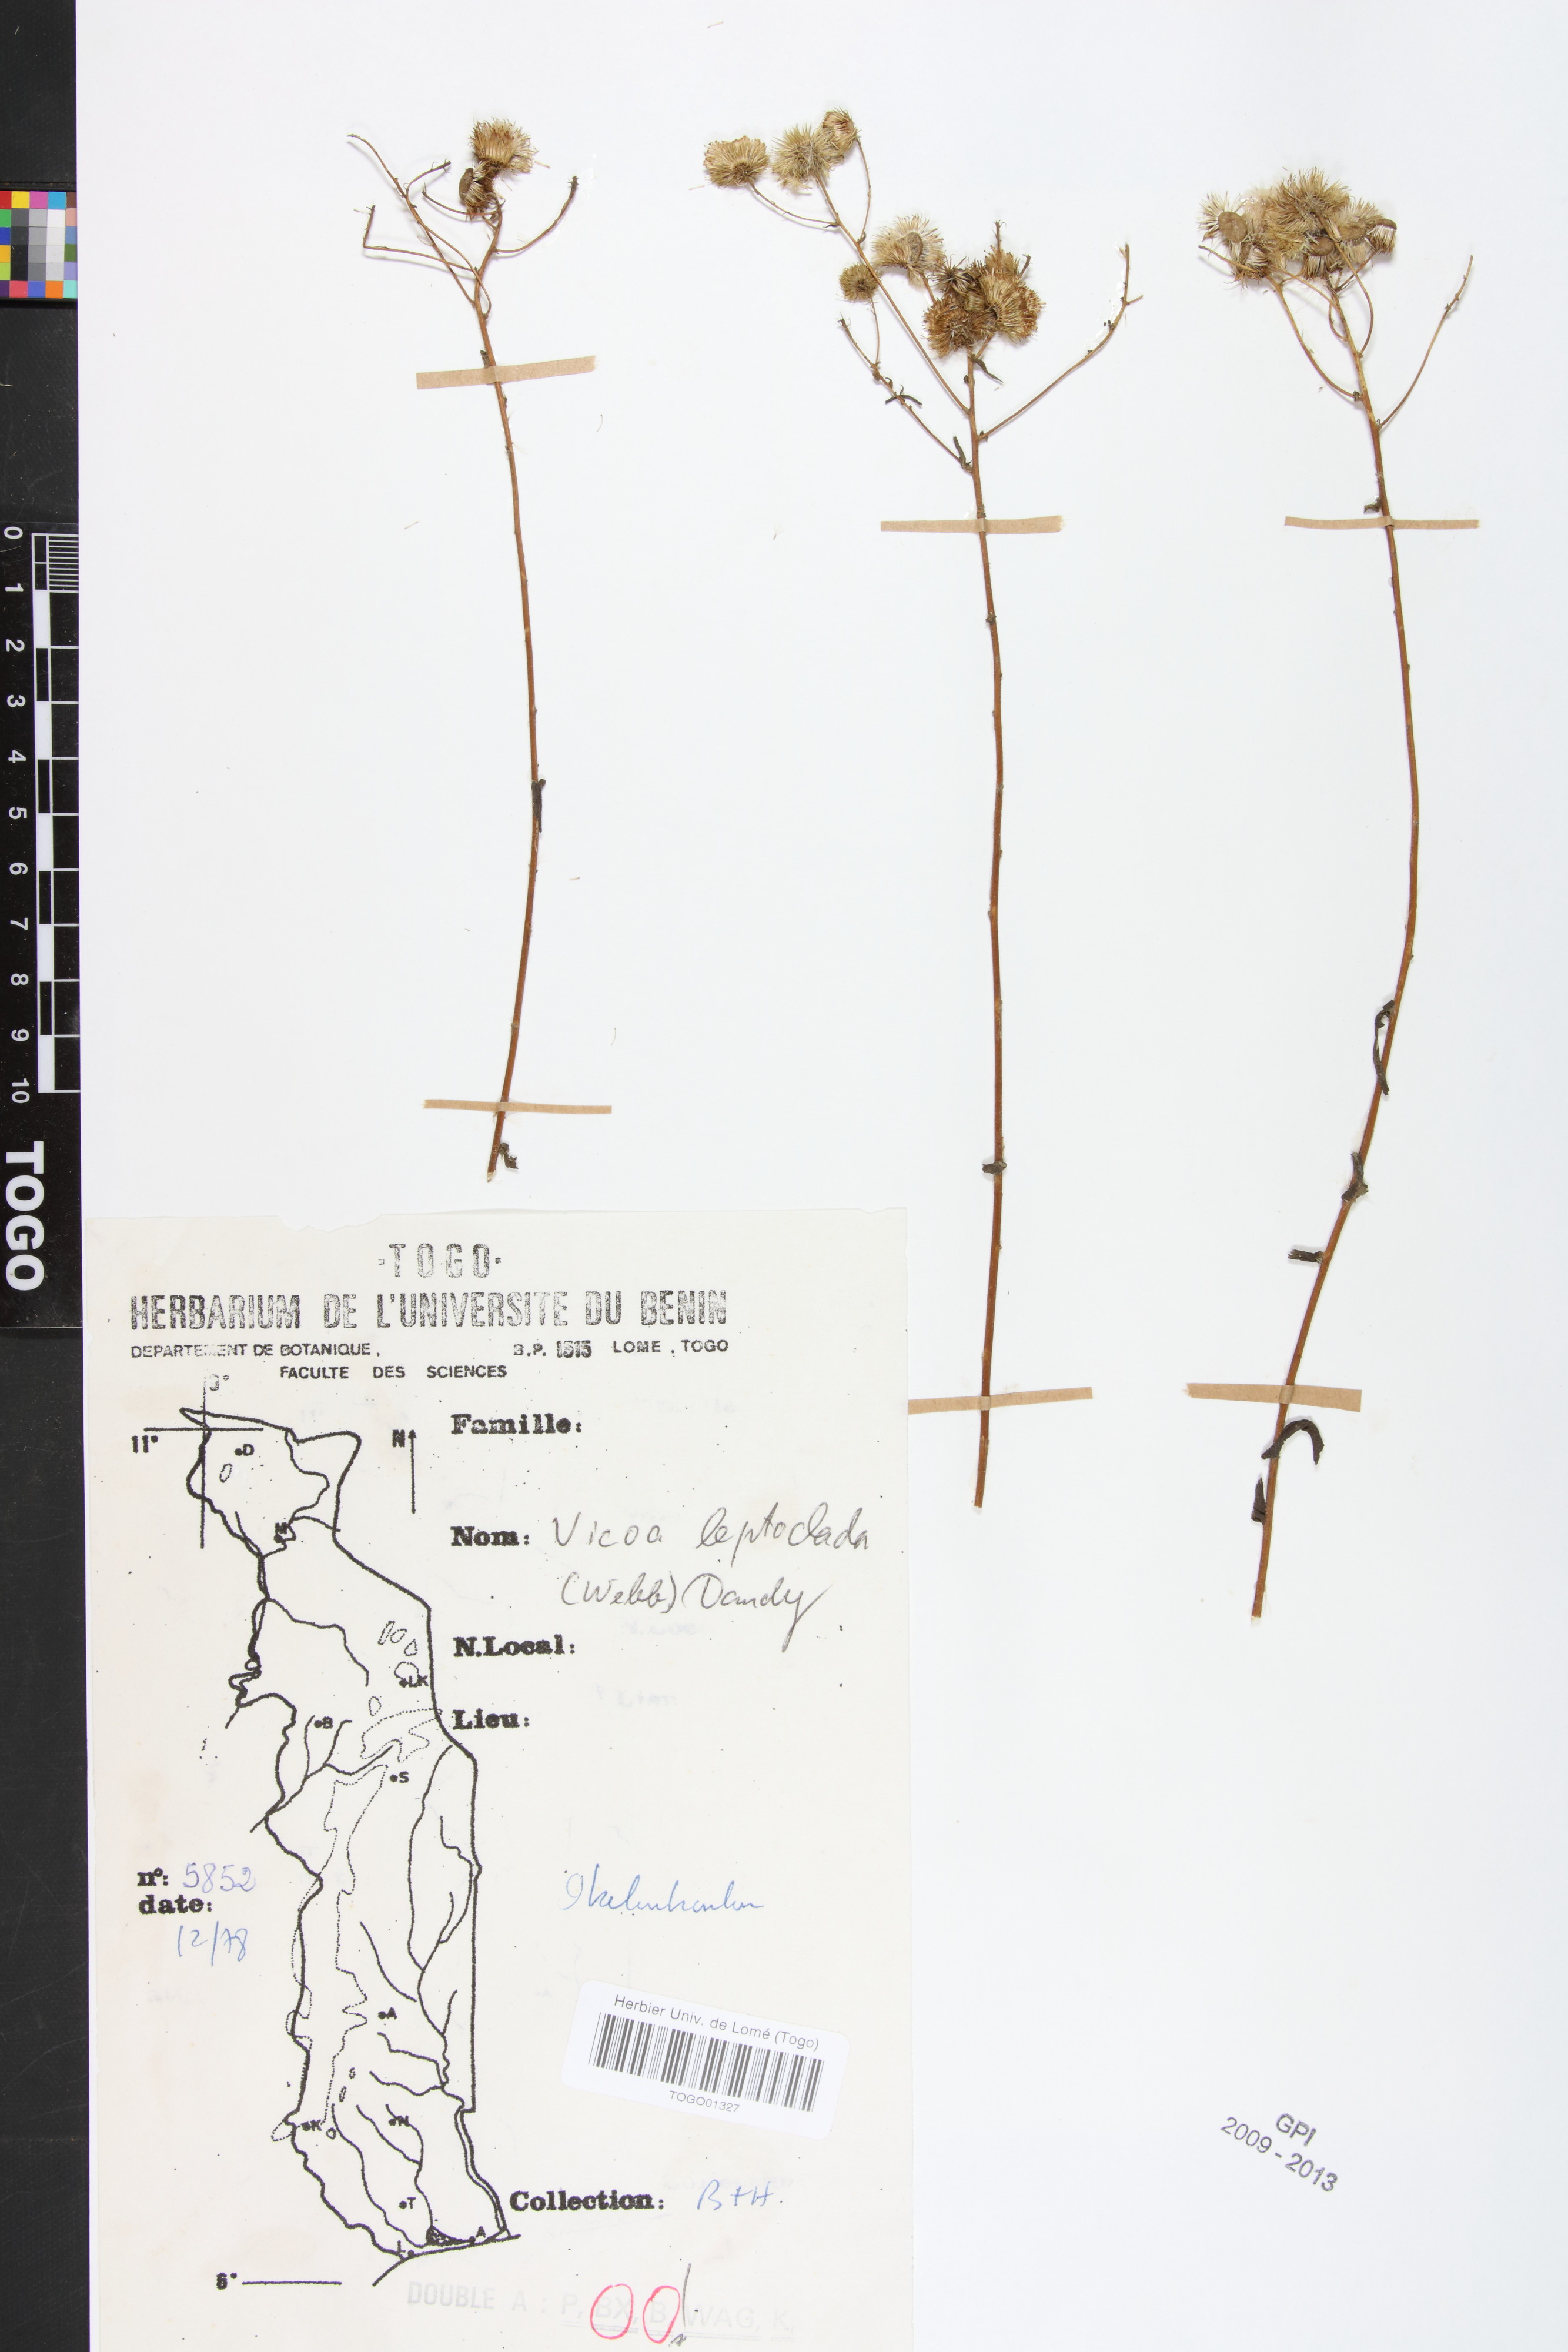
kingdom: Plantae
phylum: Tracheophyta
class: Magnoliopsida
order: Asterales
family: Asteraceae
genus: Vicoa
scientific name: Vicoa indica
